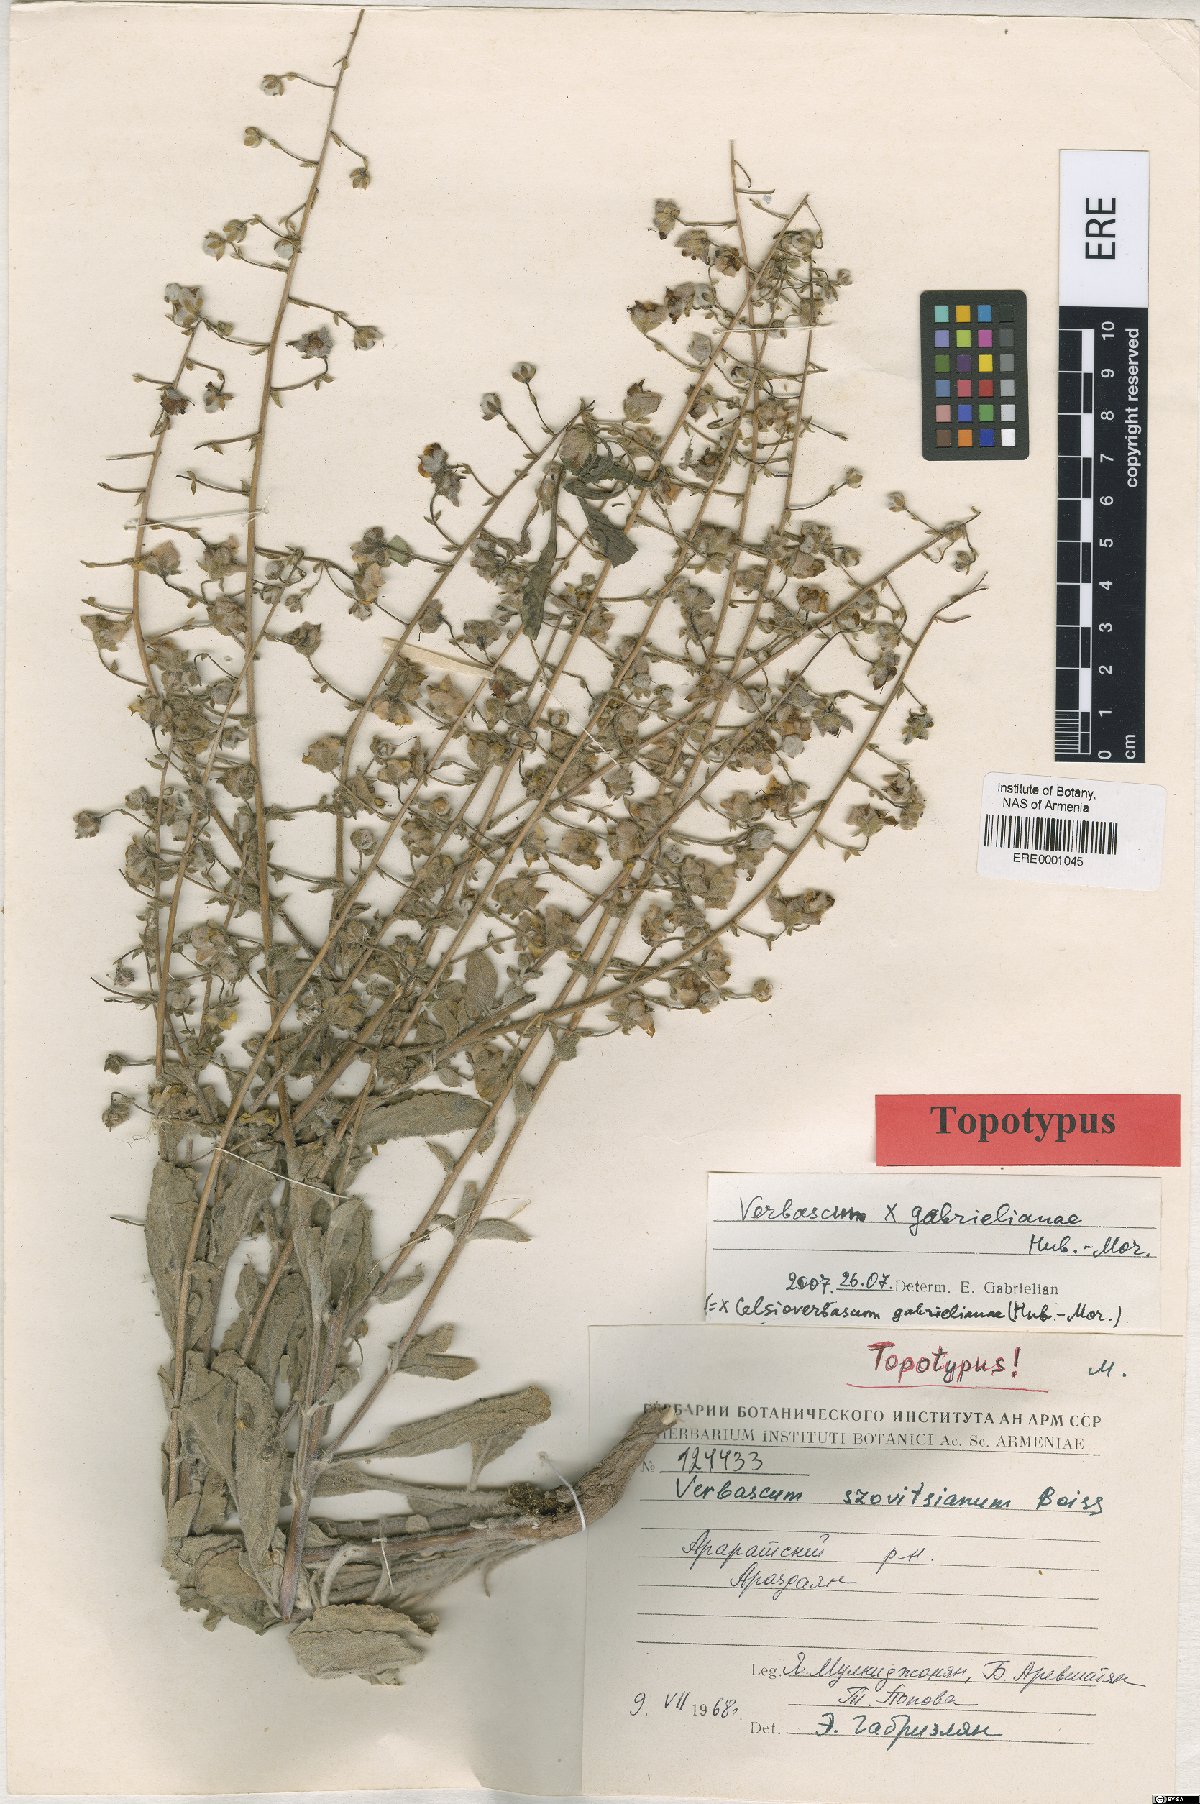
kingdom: Plantae
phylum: Tracheophyta
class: Magnoliopsida
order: Lamiales
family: Scrophulariaceae
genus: Verbascum
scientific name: Verbascum gabrielianae
